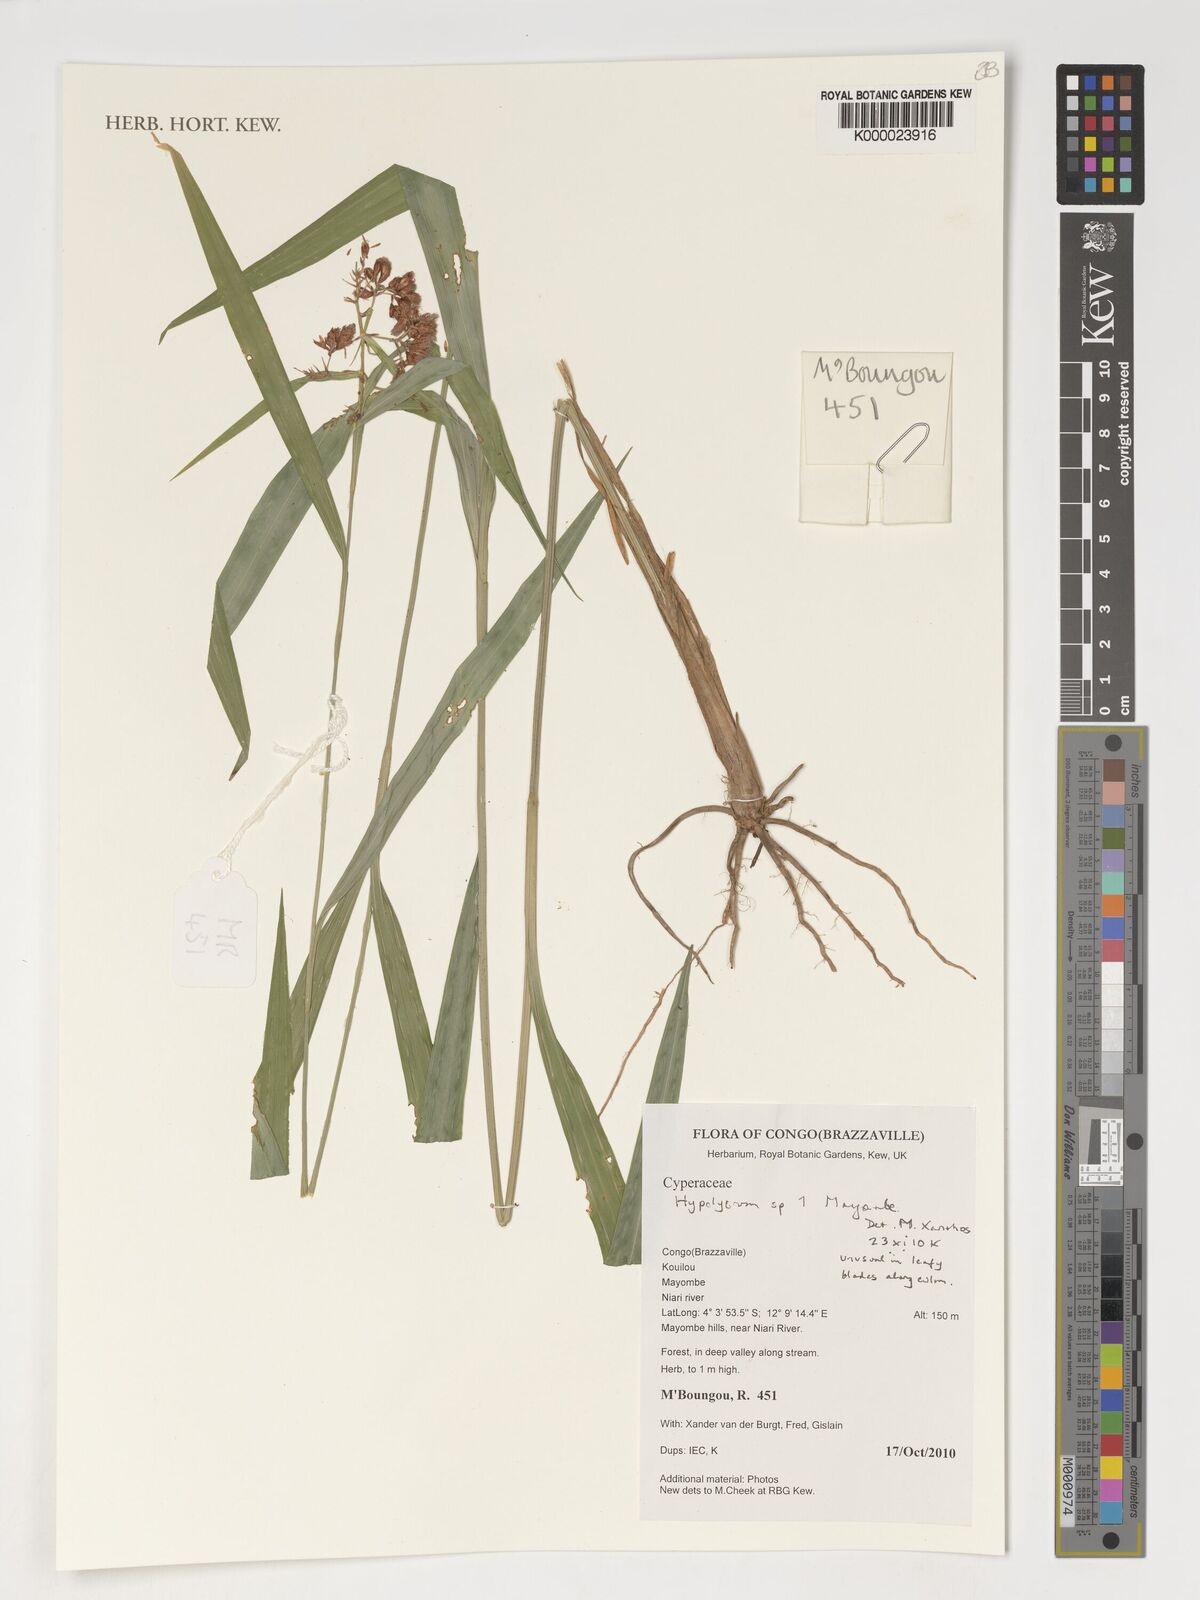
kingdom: Plantae
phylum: Tracheophyta
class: Liliopsida
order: Poales
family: Cyperaceae
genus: Hypolytrum
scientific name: Hypolytrum
